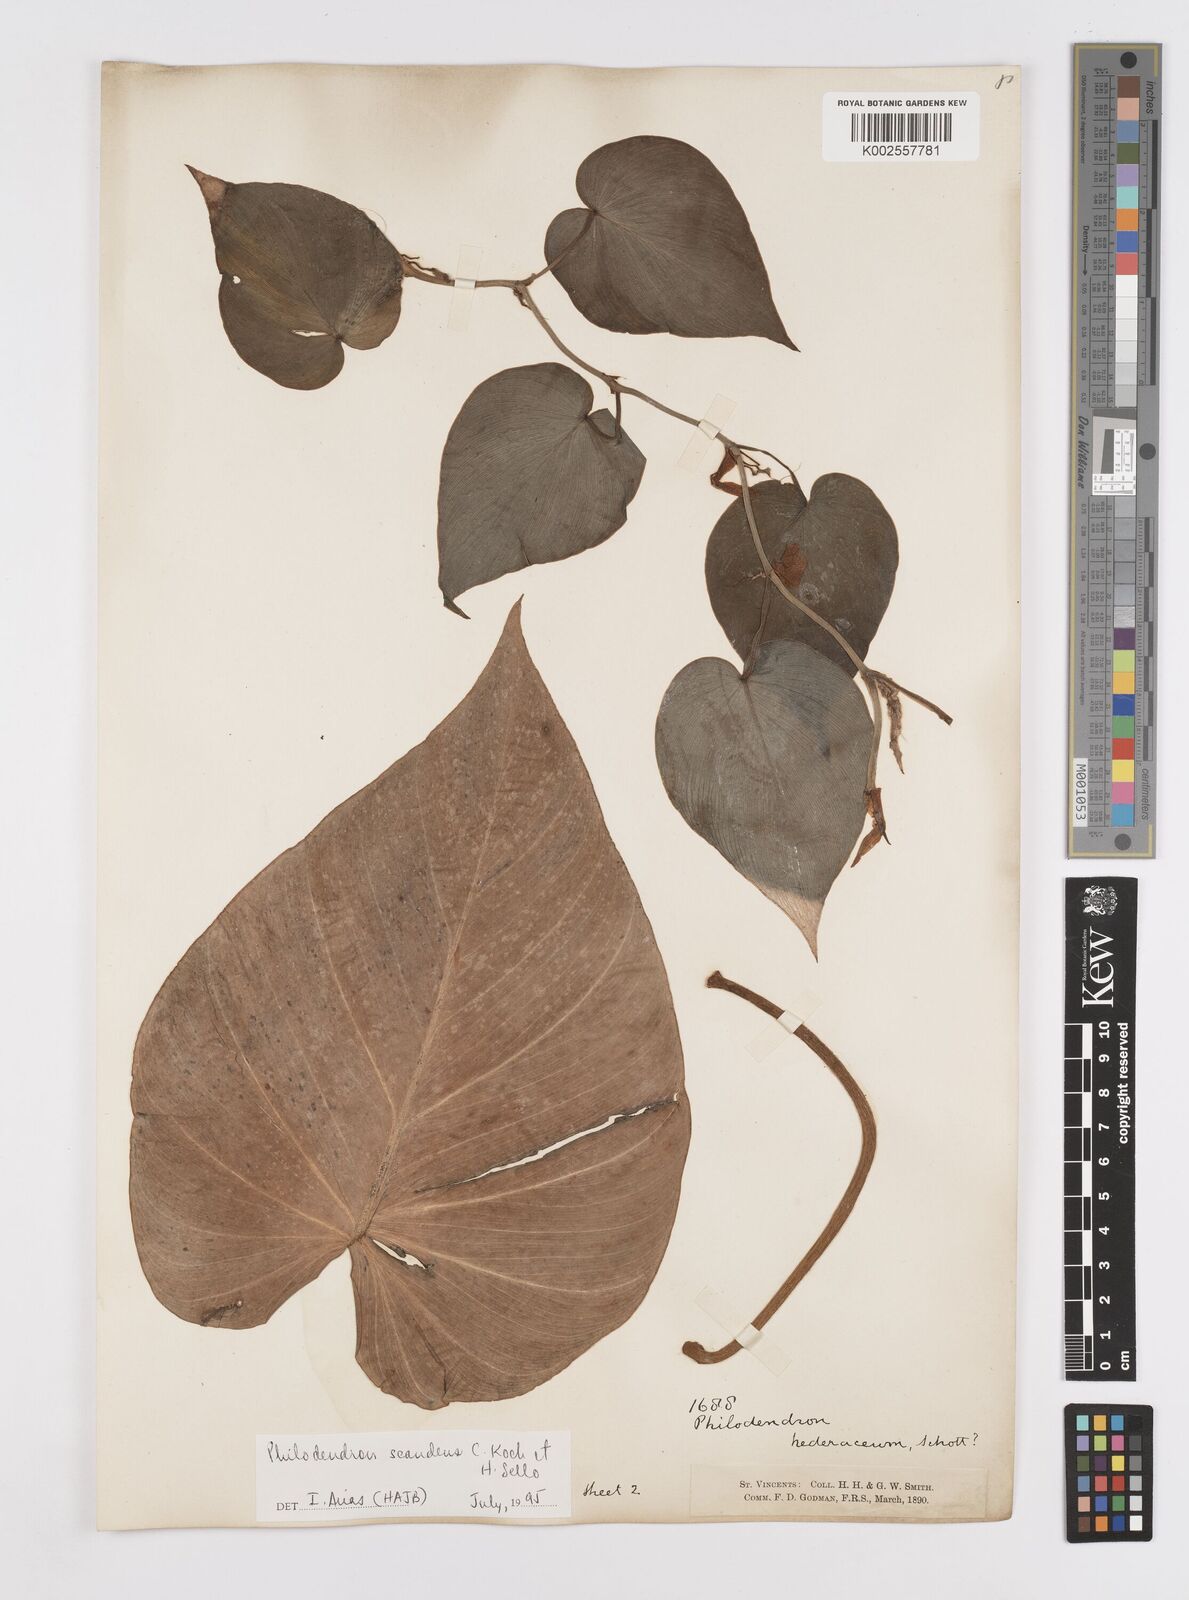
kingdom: Plantae
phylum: Tracheophyta
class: Liliopsida
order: Alismatales
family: Araceae
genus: Philodendron
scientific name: Philodendron hederaceum
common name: Vilevine
